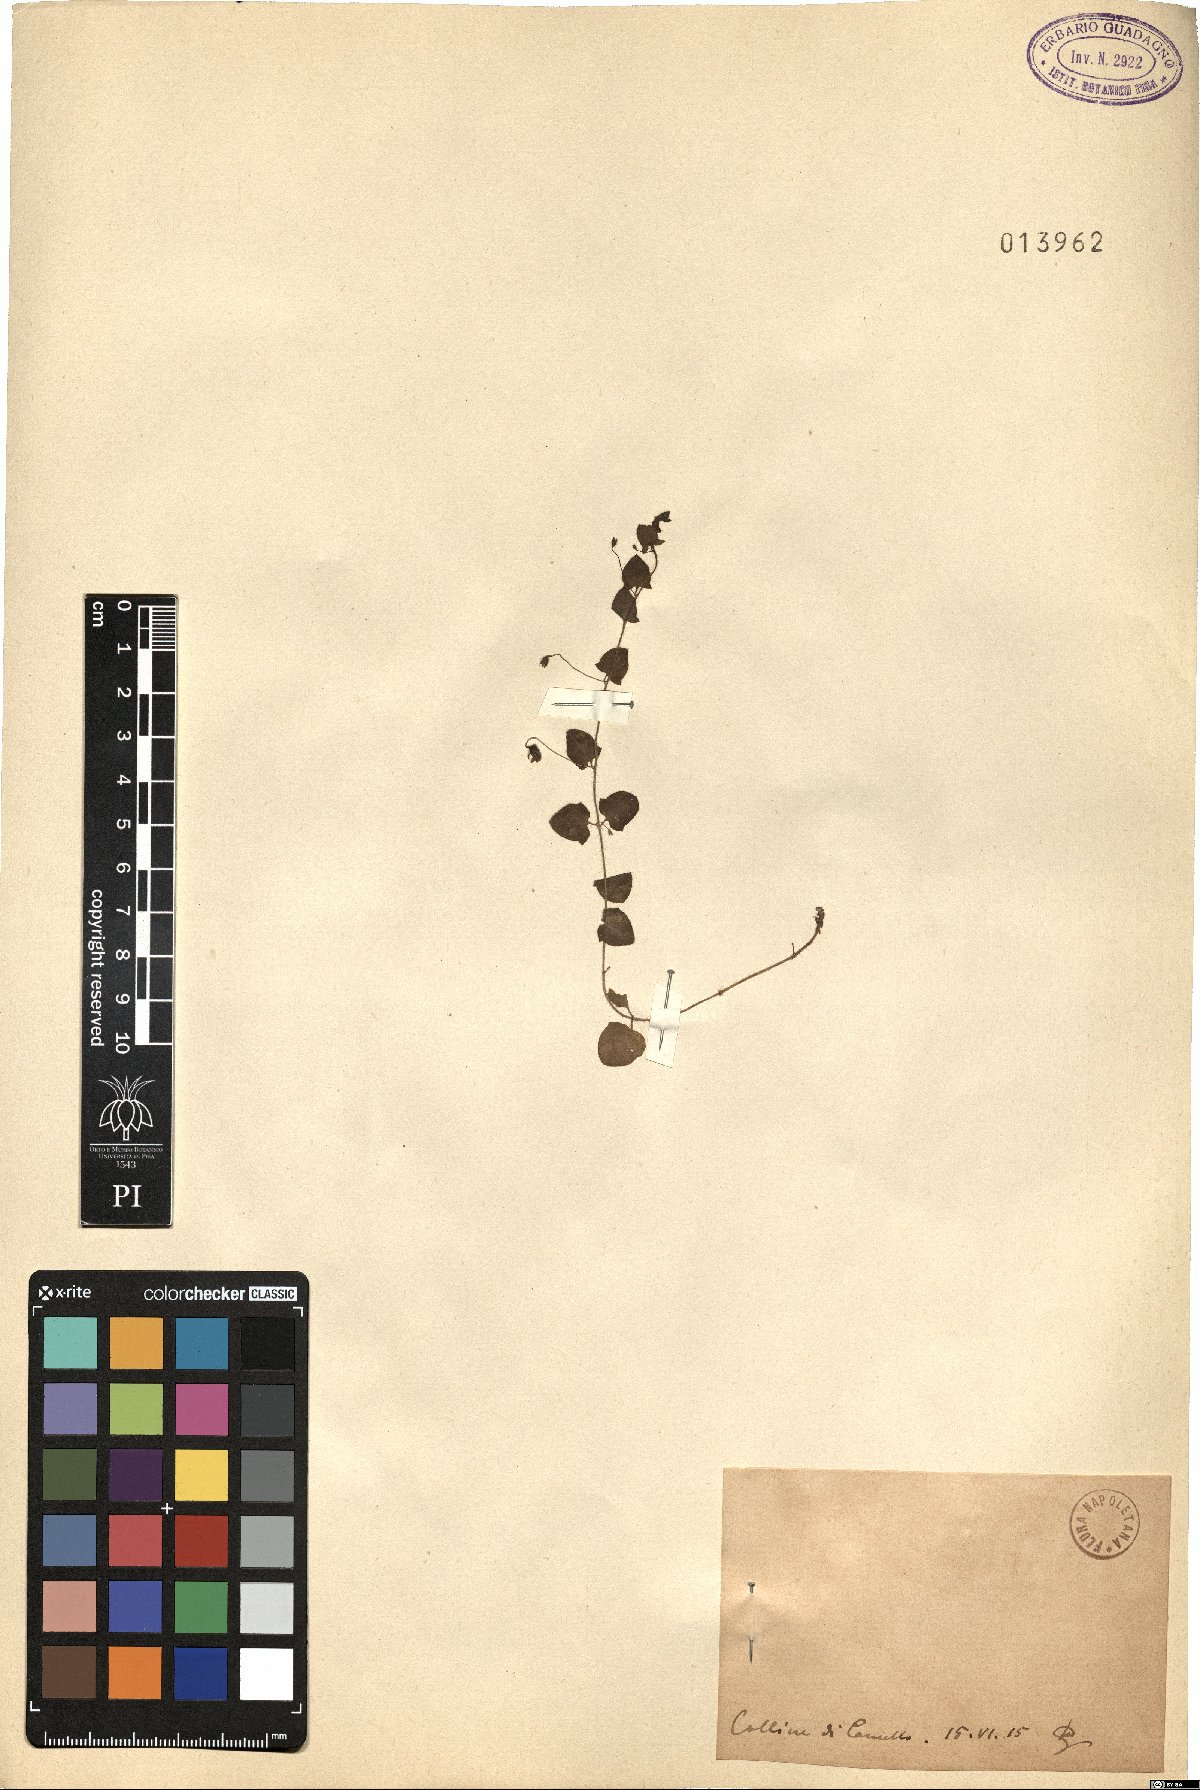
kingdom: Plantae
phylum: Tracheophyta
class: Magnoliopsida
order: Lamiales
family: Plantaginaceae
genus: Linaria
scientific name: Linaria
